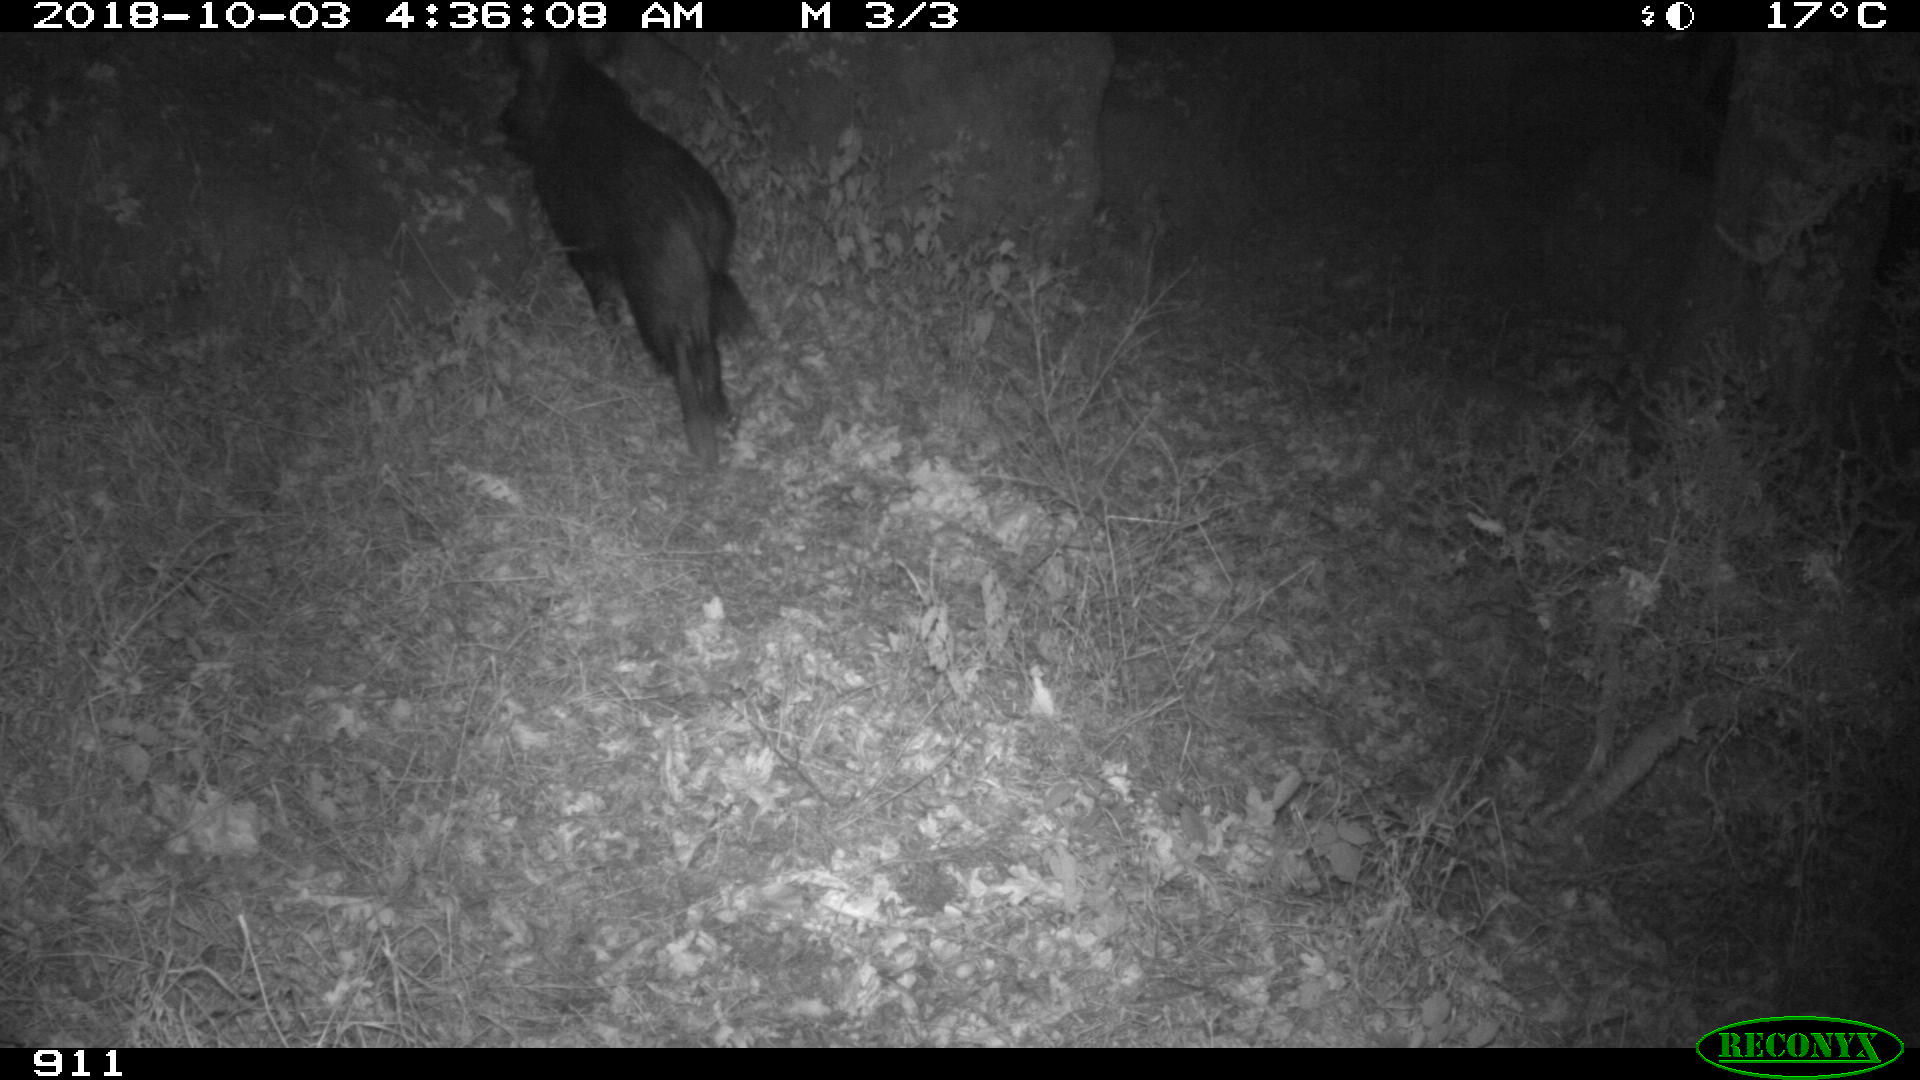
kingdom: Animalia
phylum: Chordata
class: Mammalia
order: Artiodactyla
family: Suidae
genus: Sus
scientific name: Sus scrofa
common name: Wild boar
